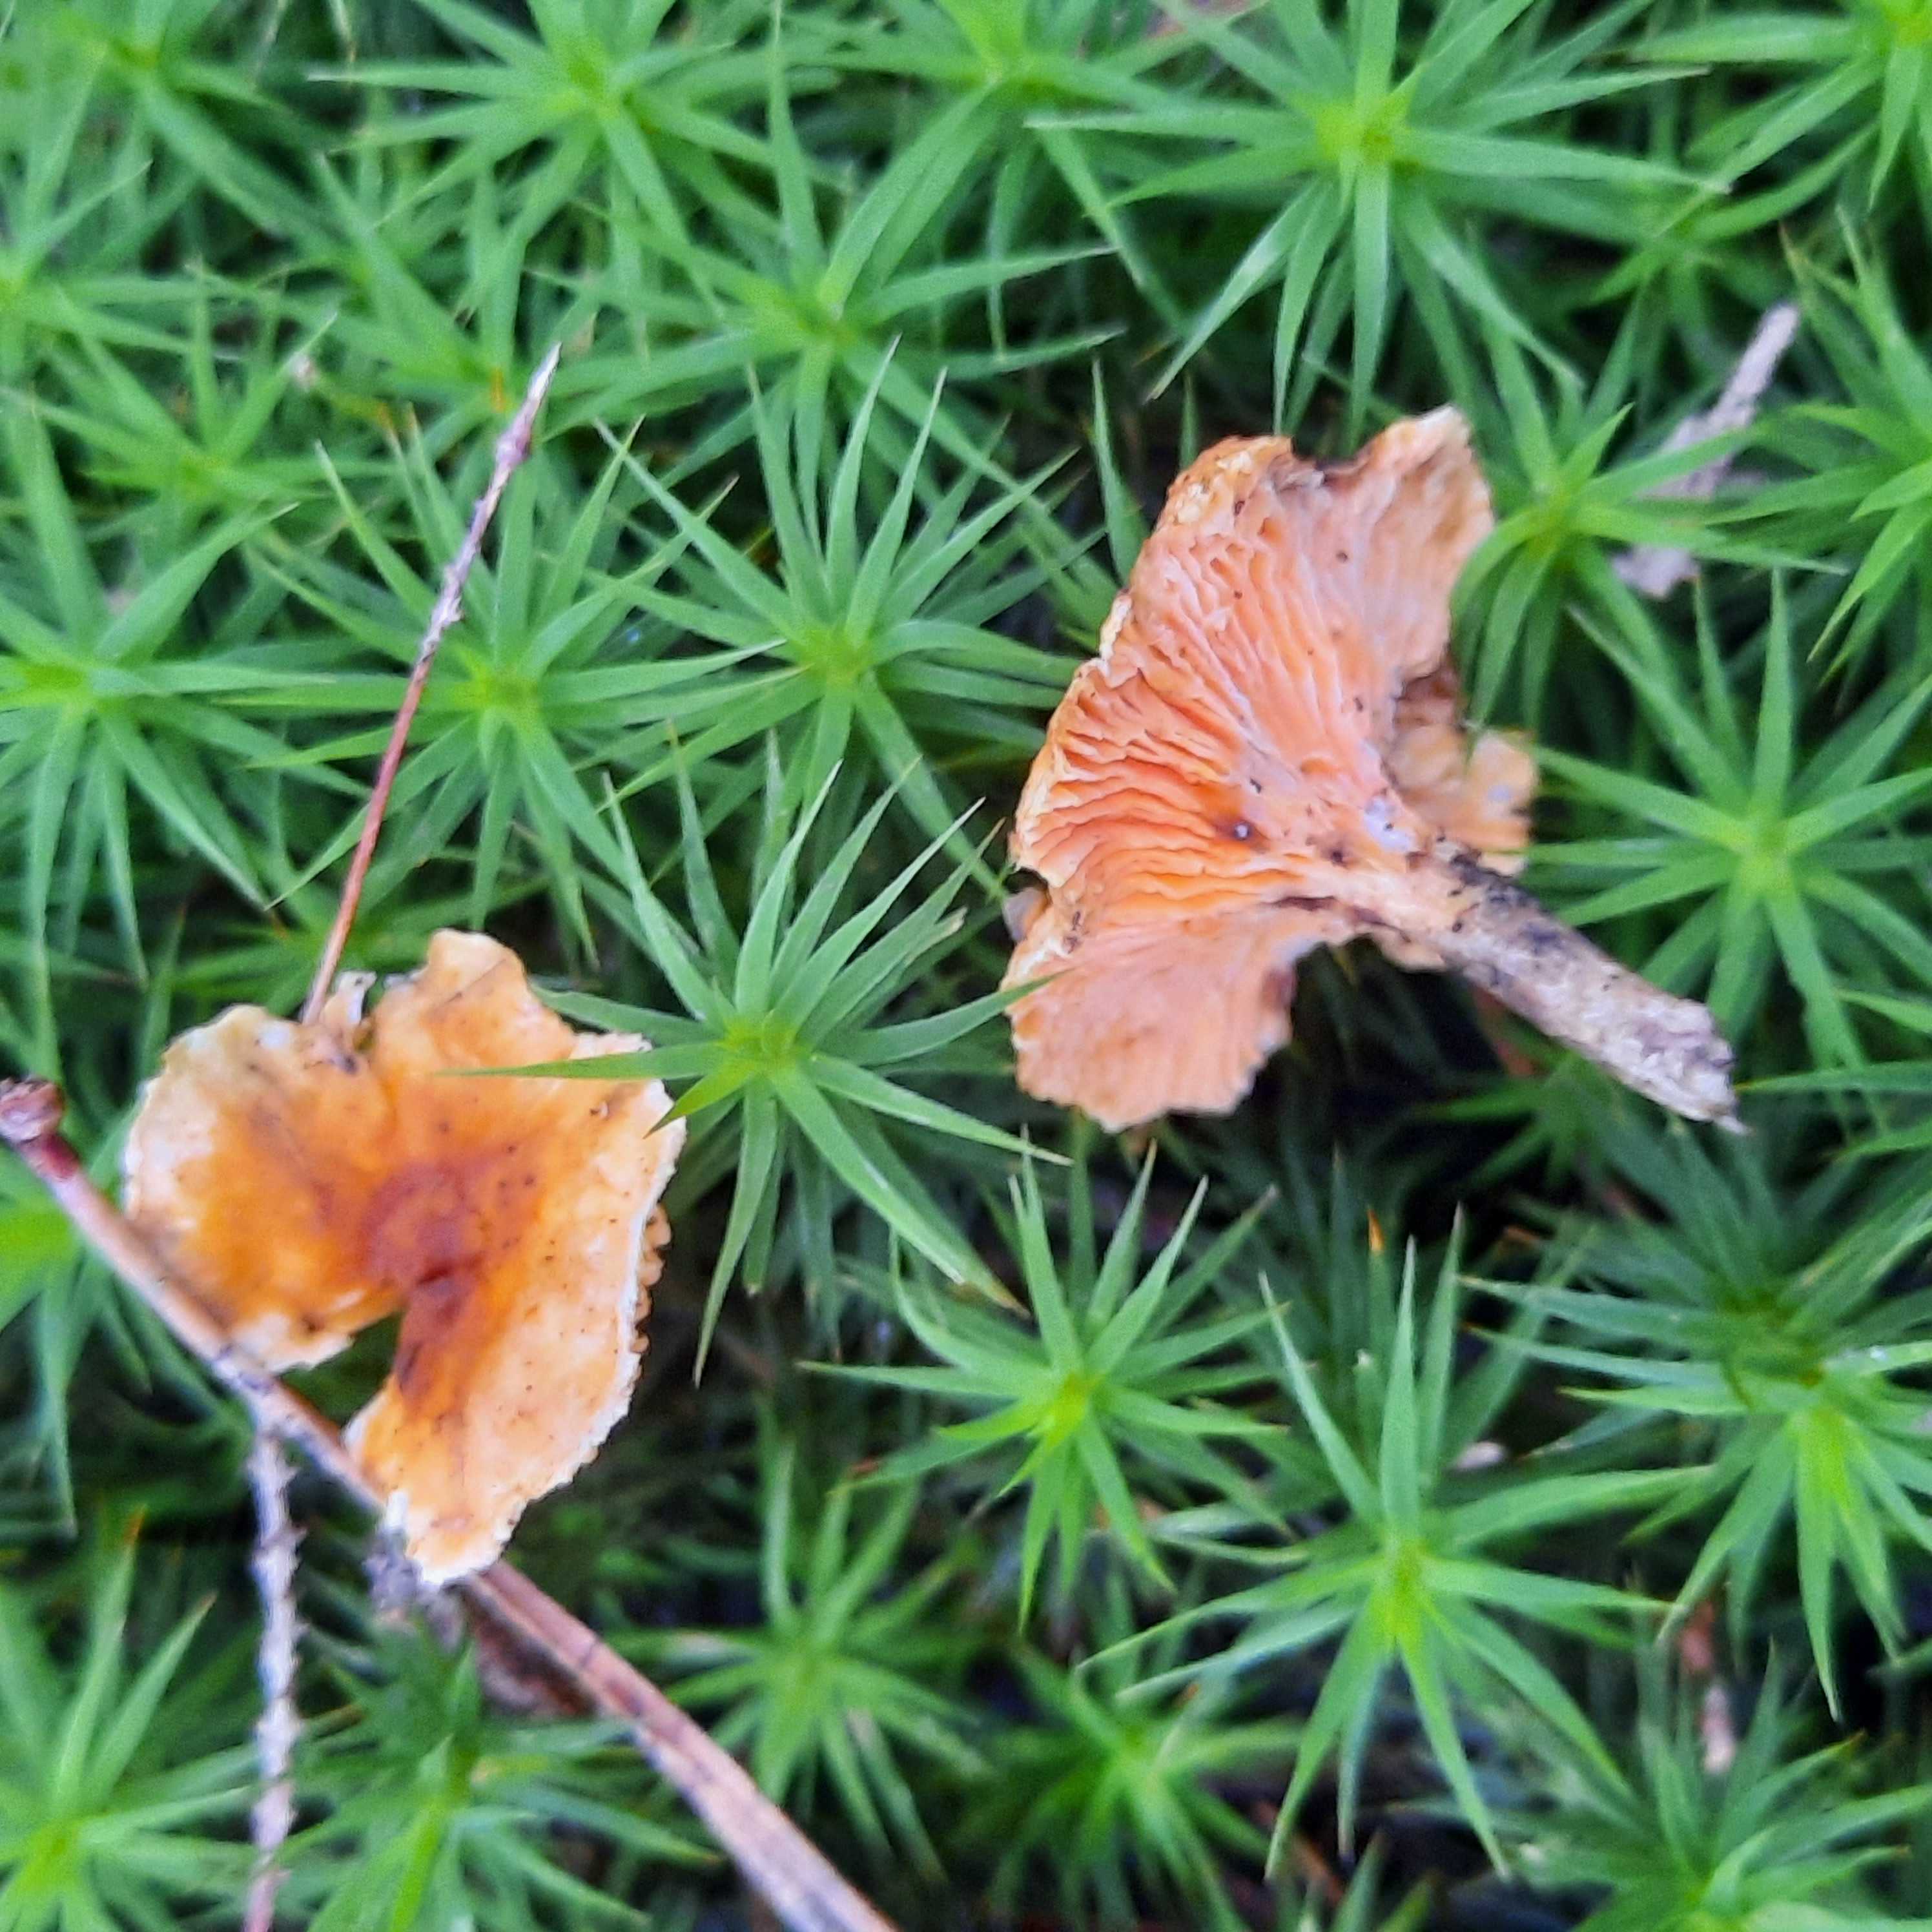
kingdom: Fungi
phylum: Basidiomycota
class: Agaricomycetes
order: Boletales
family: Hygrophoropsidaceae
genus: Hygrophoropsis
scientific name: Hygrophoropsis aurantiaca
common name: almindelig orangekantarel
